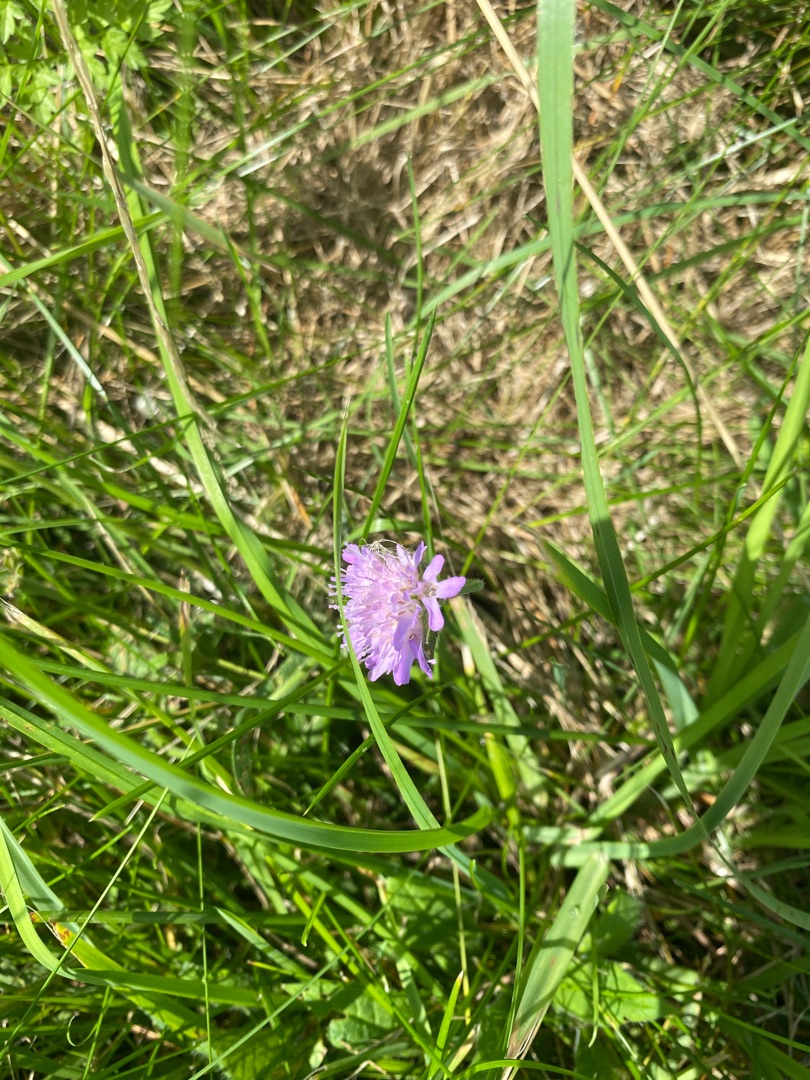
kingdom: Plantae
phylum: Tracheophyta
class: Magnoliopsida
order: Dipsacales
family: Caprifoliaceae
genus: Knautia
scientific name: Knautia arvensis
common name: Blåhat
